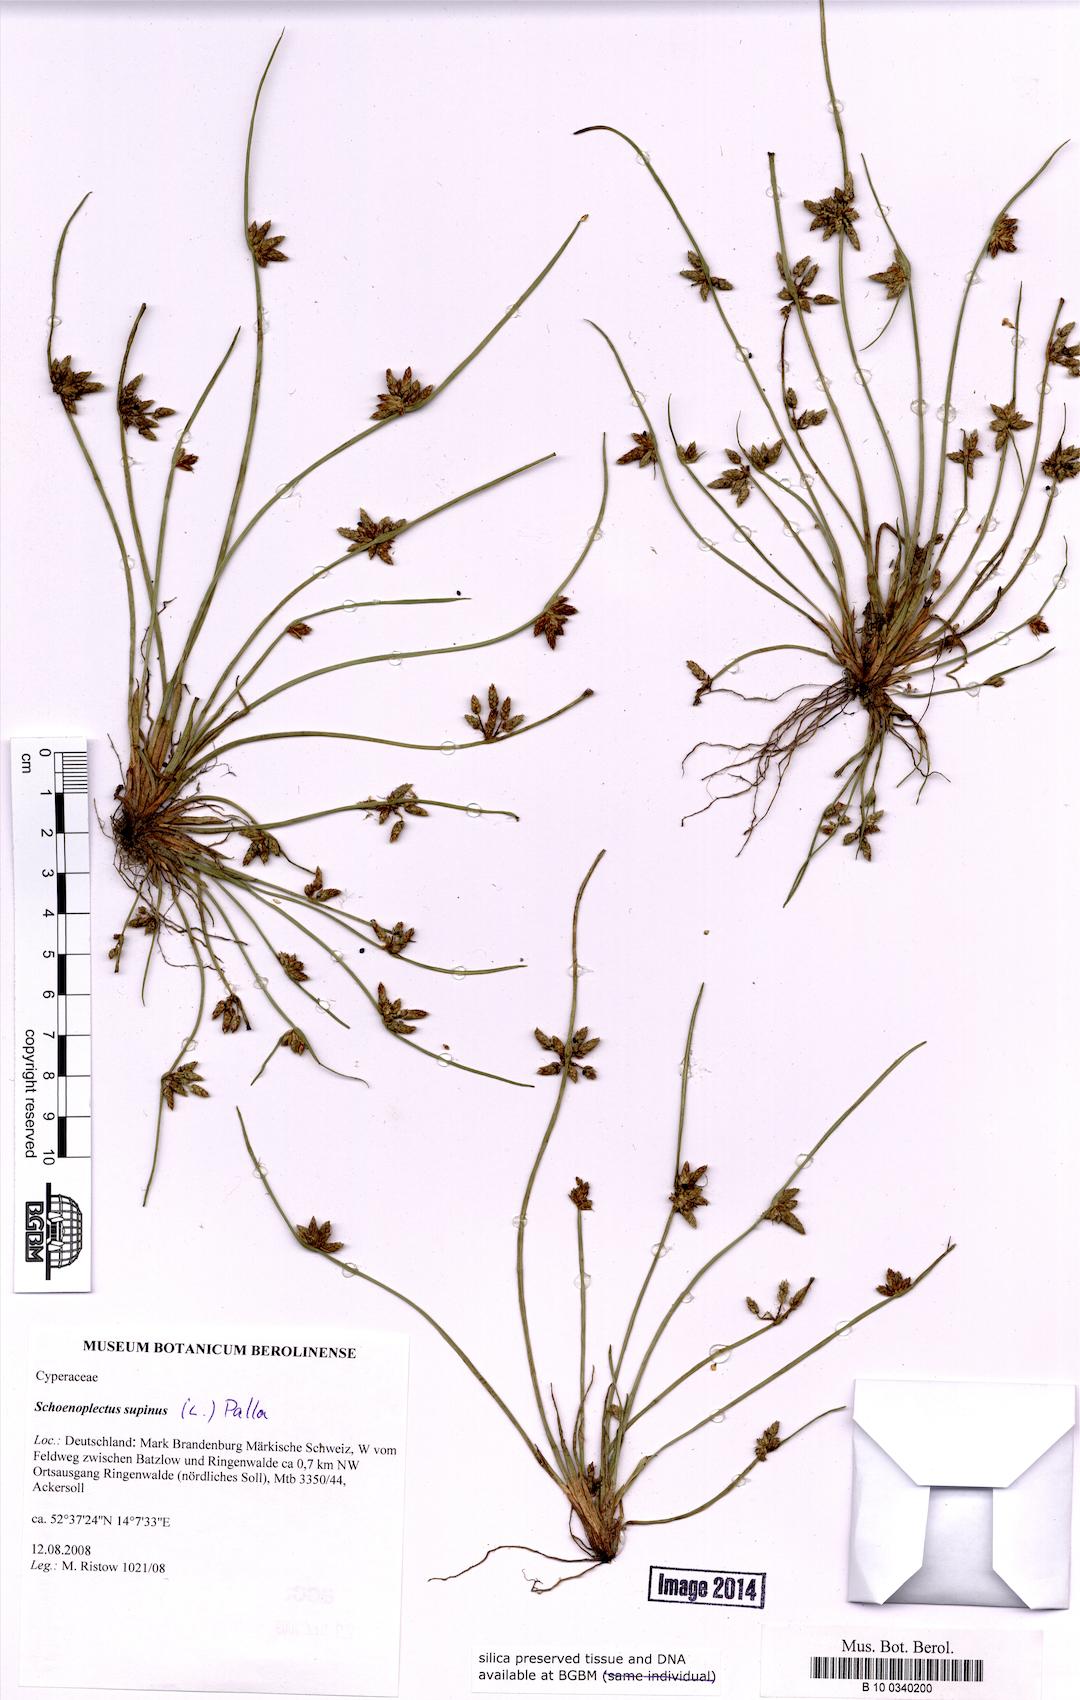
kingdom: Plantae
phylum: Tracheophyta
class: Liliopsida
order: Poales
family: Cyperaceae
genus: Schoenoplectiella
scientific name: Schoenoplectiella supina
